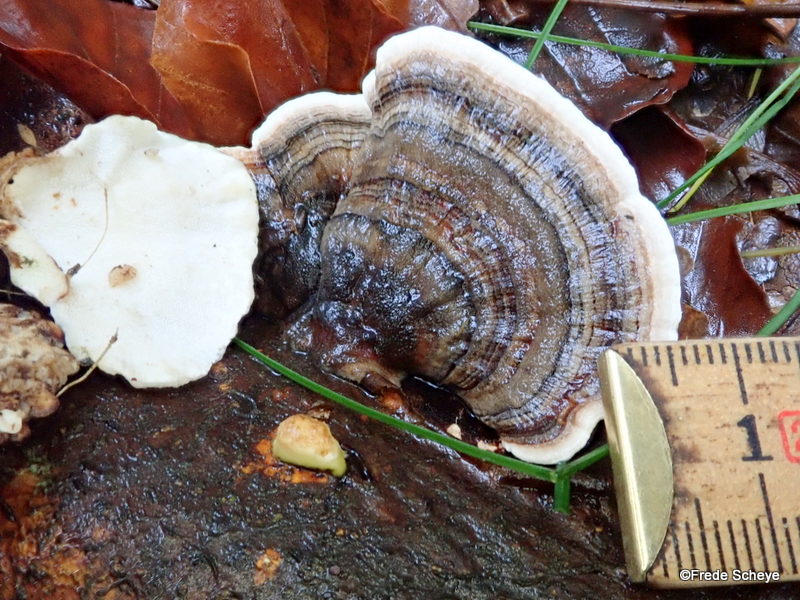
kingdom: Fungi
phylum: Basidiomycota
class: Agaricomycetes
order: Polyporales
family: Polyporaceae
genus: Trametes
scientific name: Trametes versicolor
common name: broget læderporesvamp
